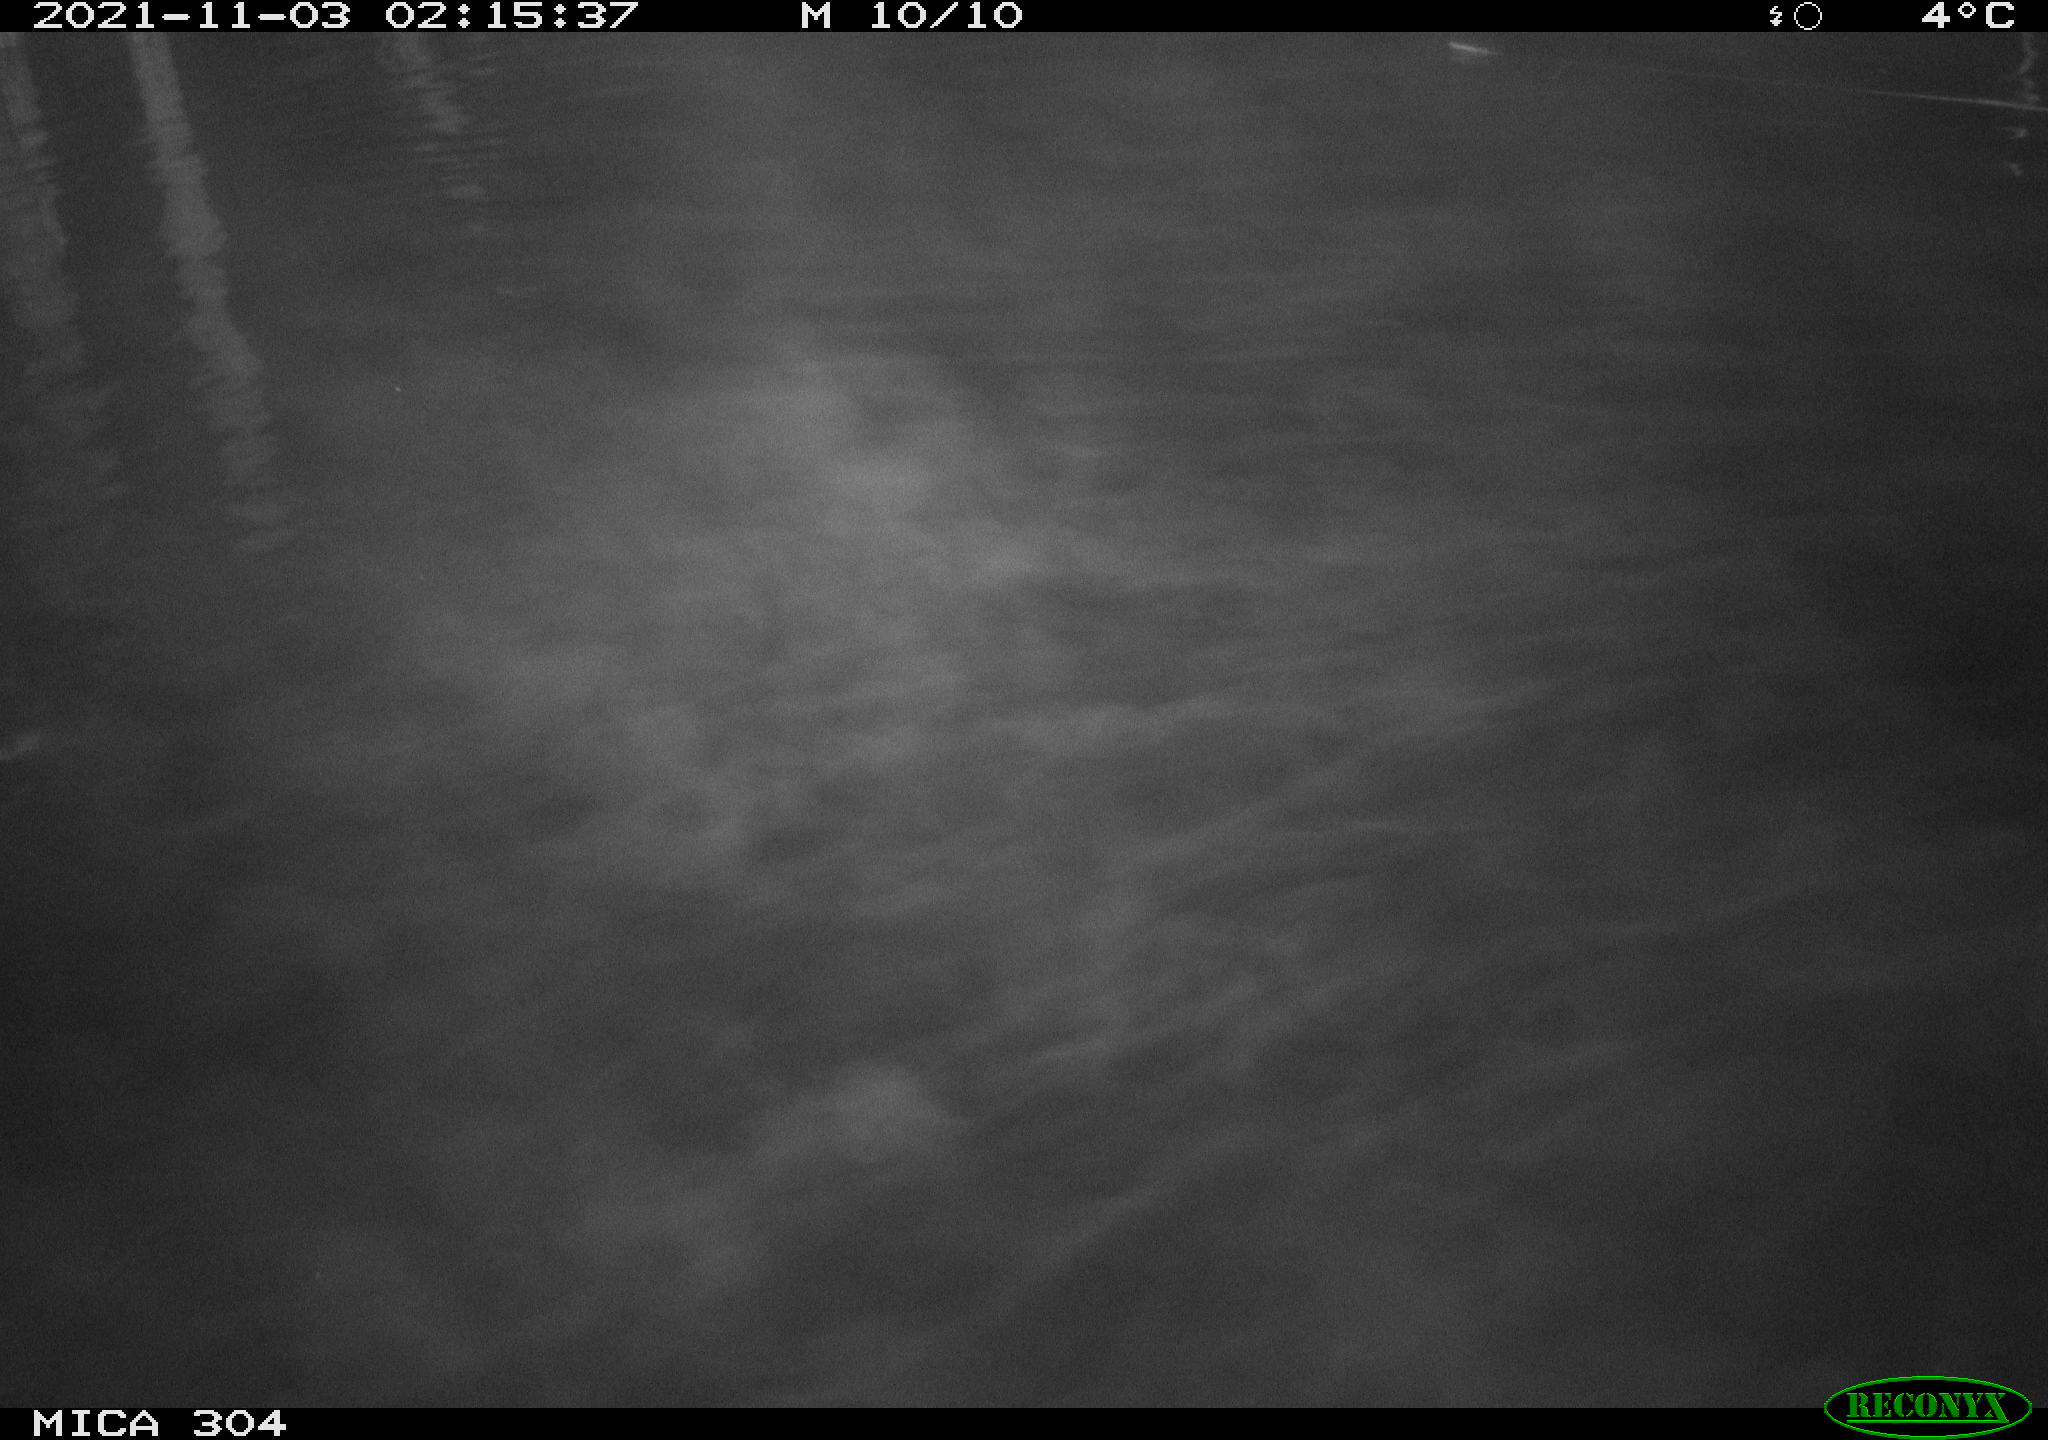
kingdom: Animalia
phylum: Chordata
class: Mammalia
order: Rodentia
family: Cricetidae
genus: Ondatra
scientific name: Ondatra zibethicus
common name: Muskrat
